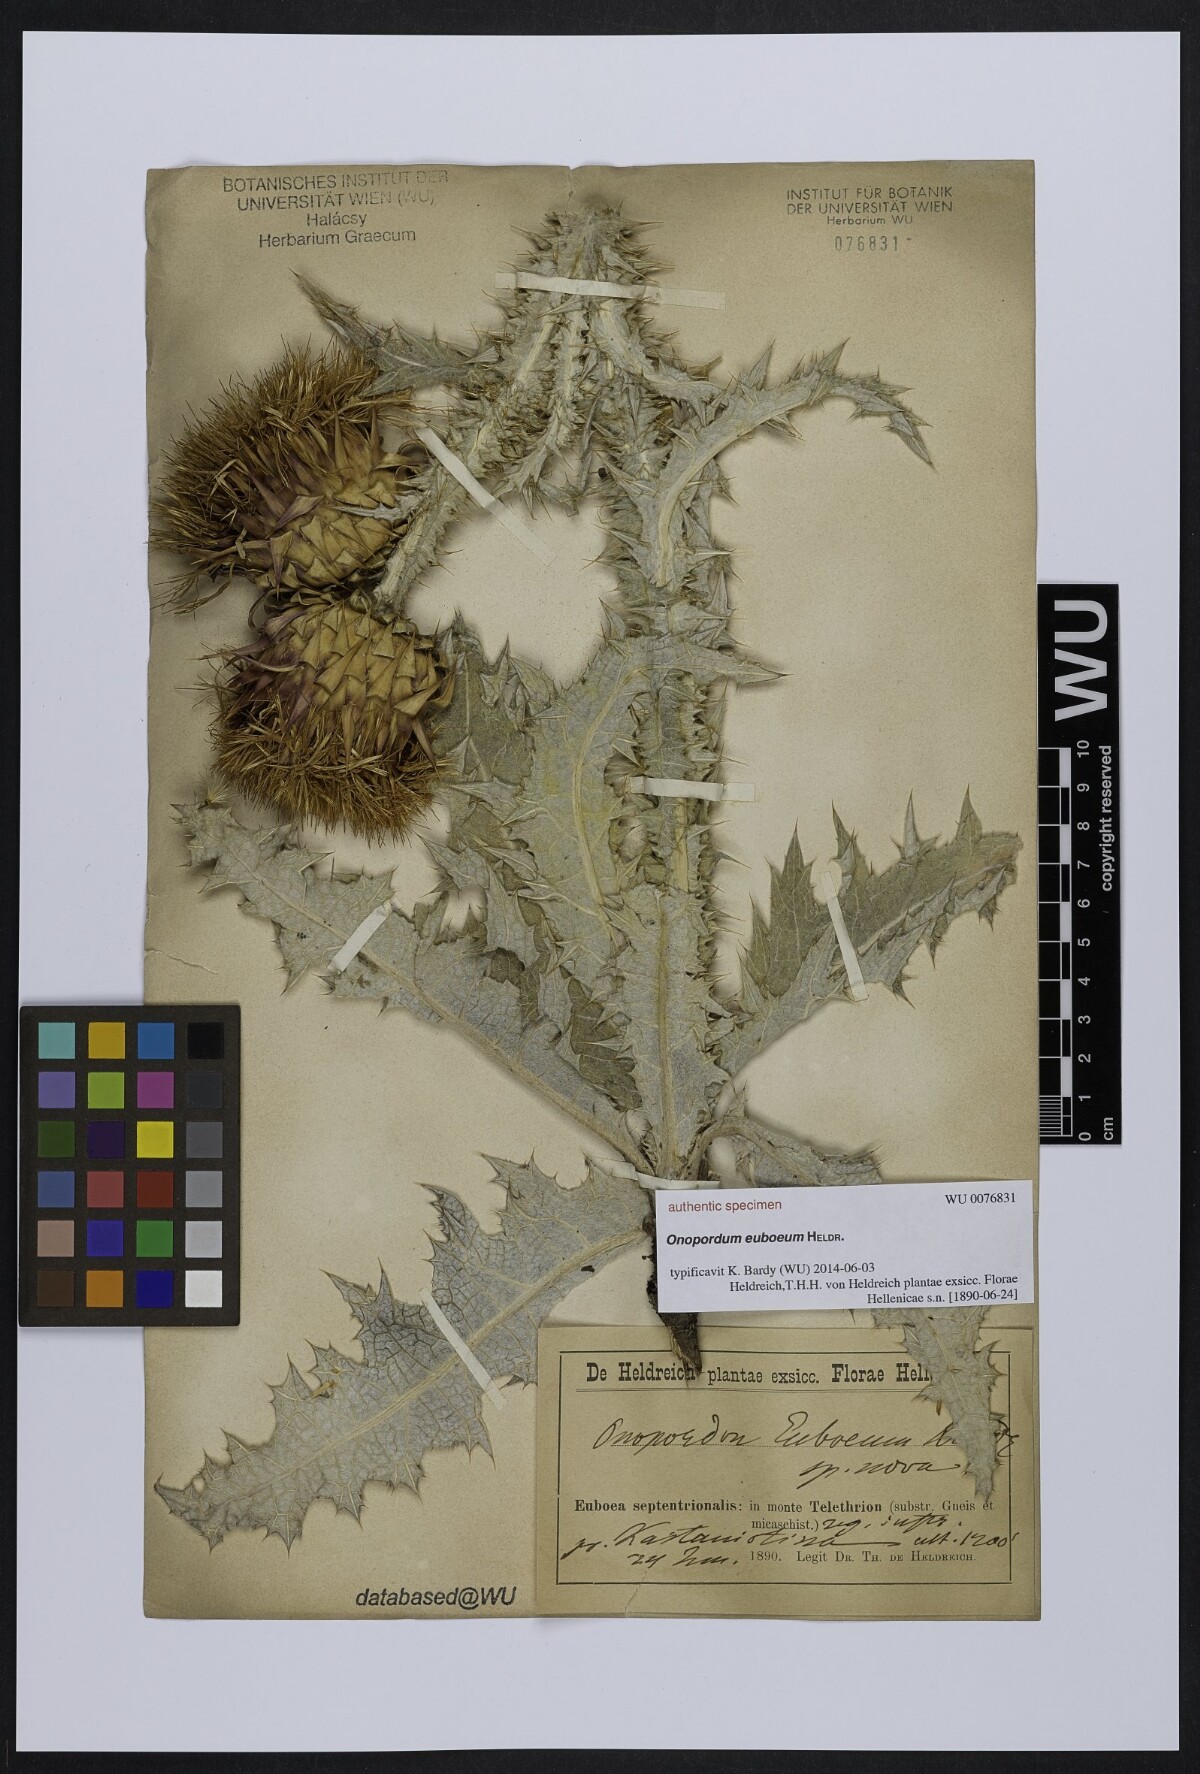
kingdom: Plantae
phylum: Tracheophyta
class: Magnoliopsida
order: Asterales
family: Asteraceae
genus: Onopordum
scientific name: Onopordum
